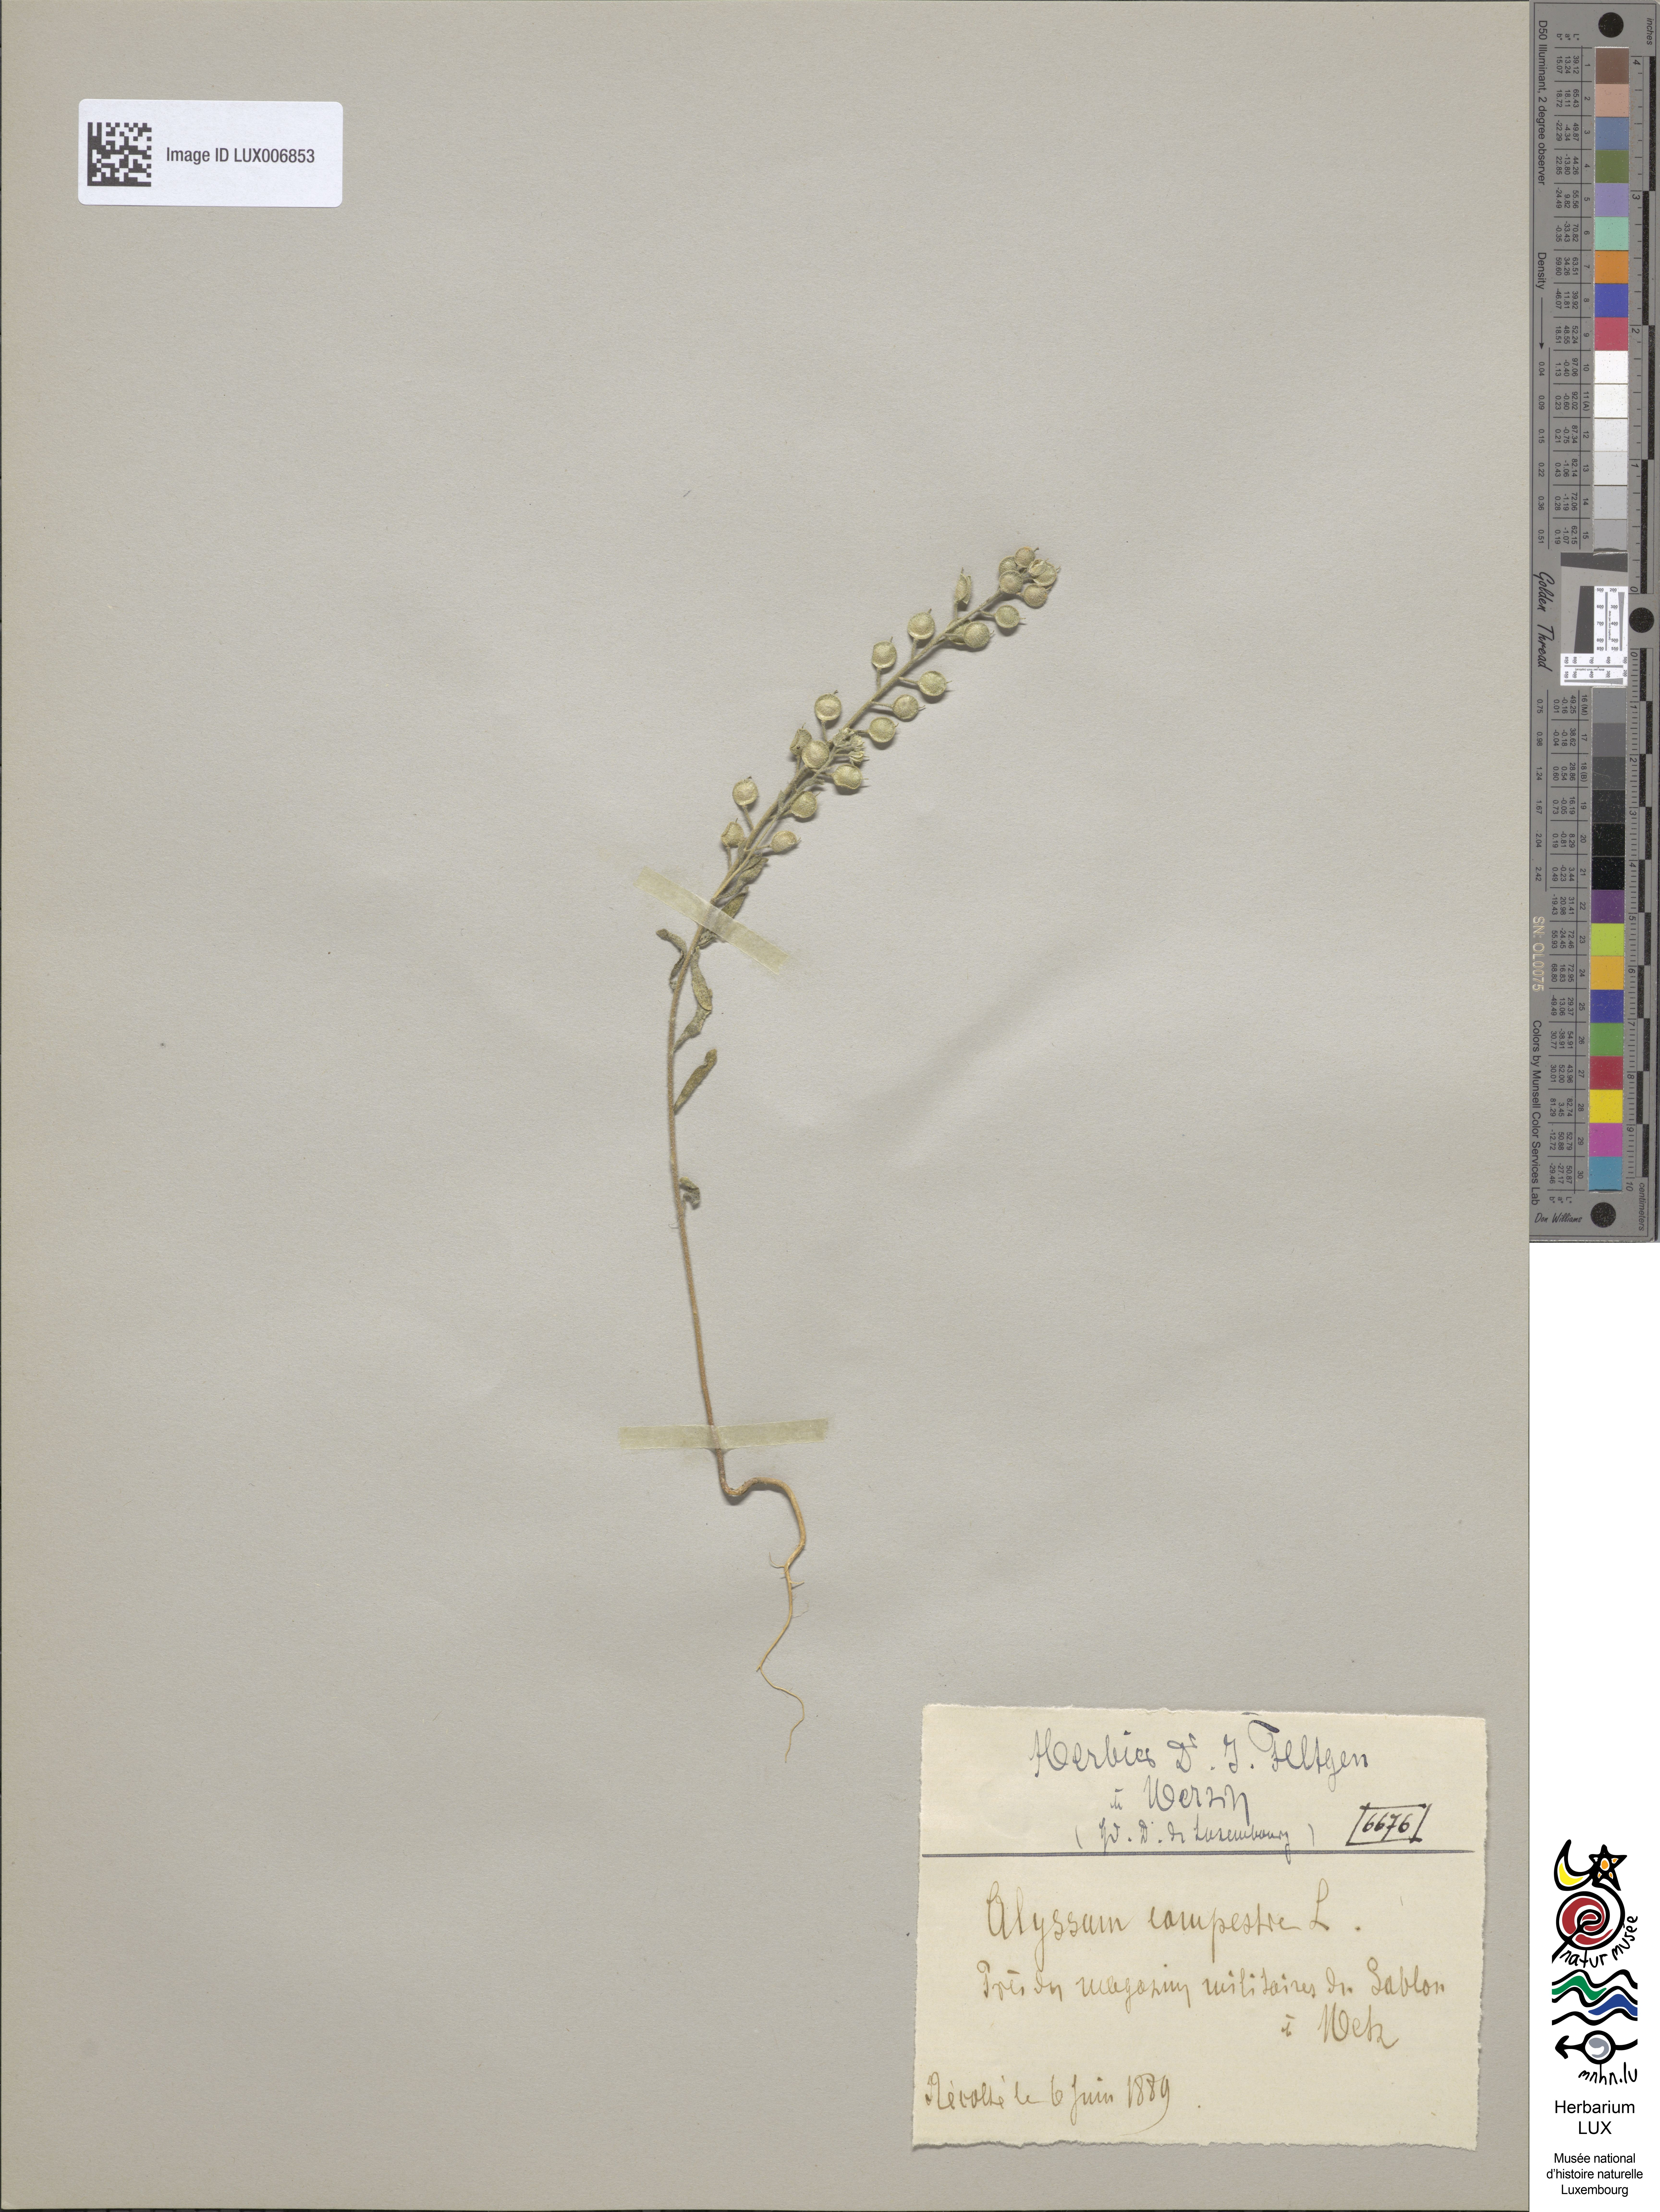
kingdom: Plantae
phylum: Tracheophyta
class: Magnoliopsida
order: Brassicales
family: Brassicaceae
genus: Alyssum
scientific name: Alyssum alyssoides
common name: Small alison
